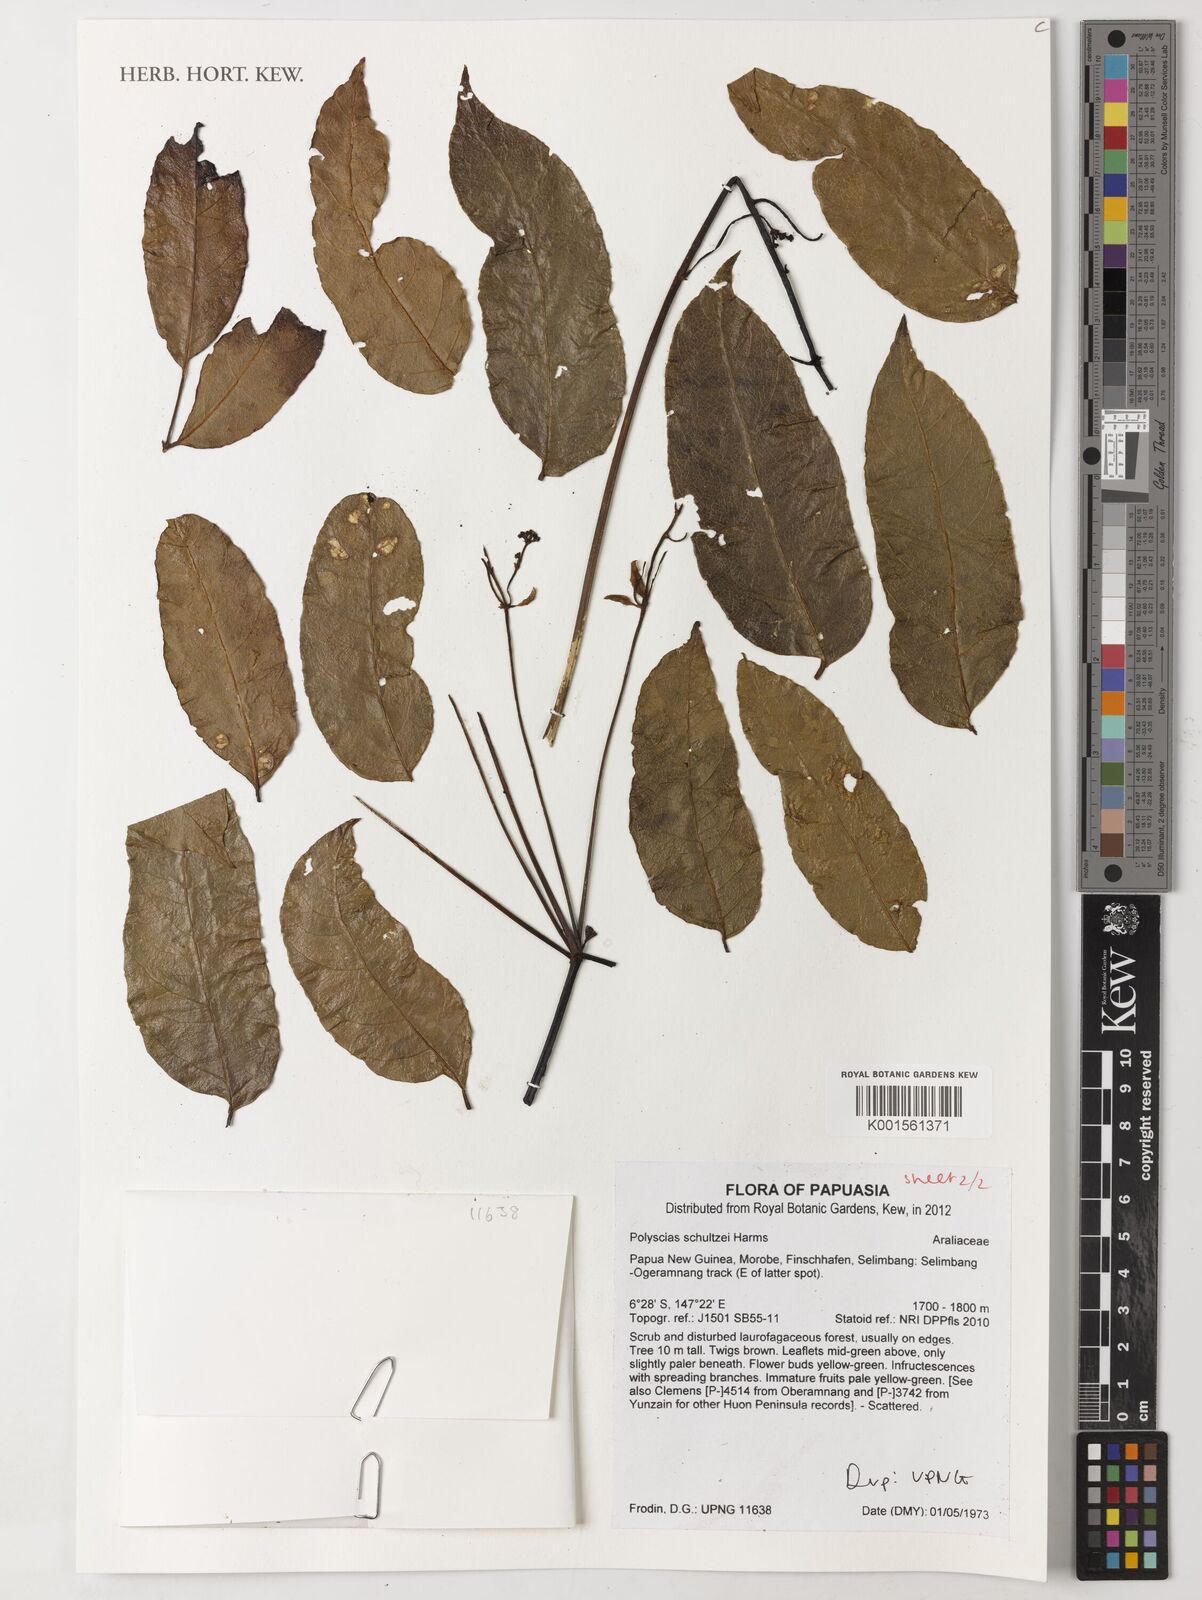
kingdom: Plantae
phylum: Tracheophyta
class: Magnoliopsida
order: Apiales
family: Araliaceae
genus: Polyscias
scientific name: Polyscias schultzei
